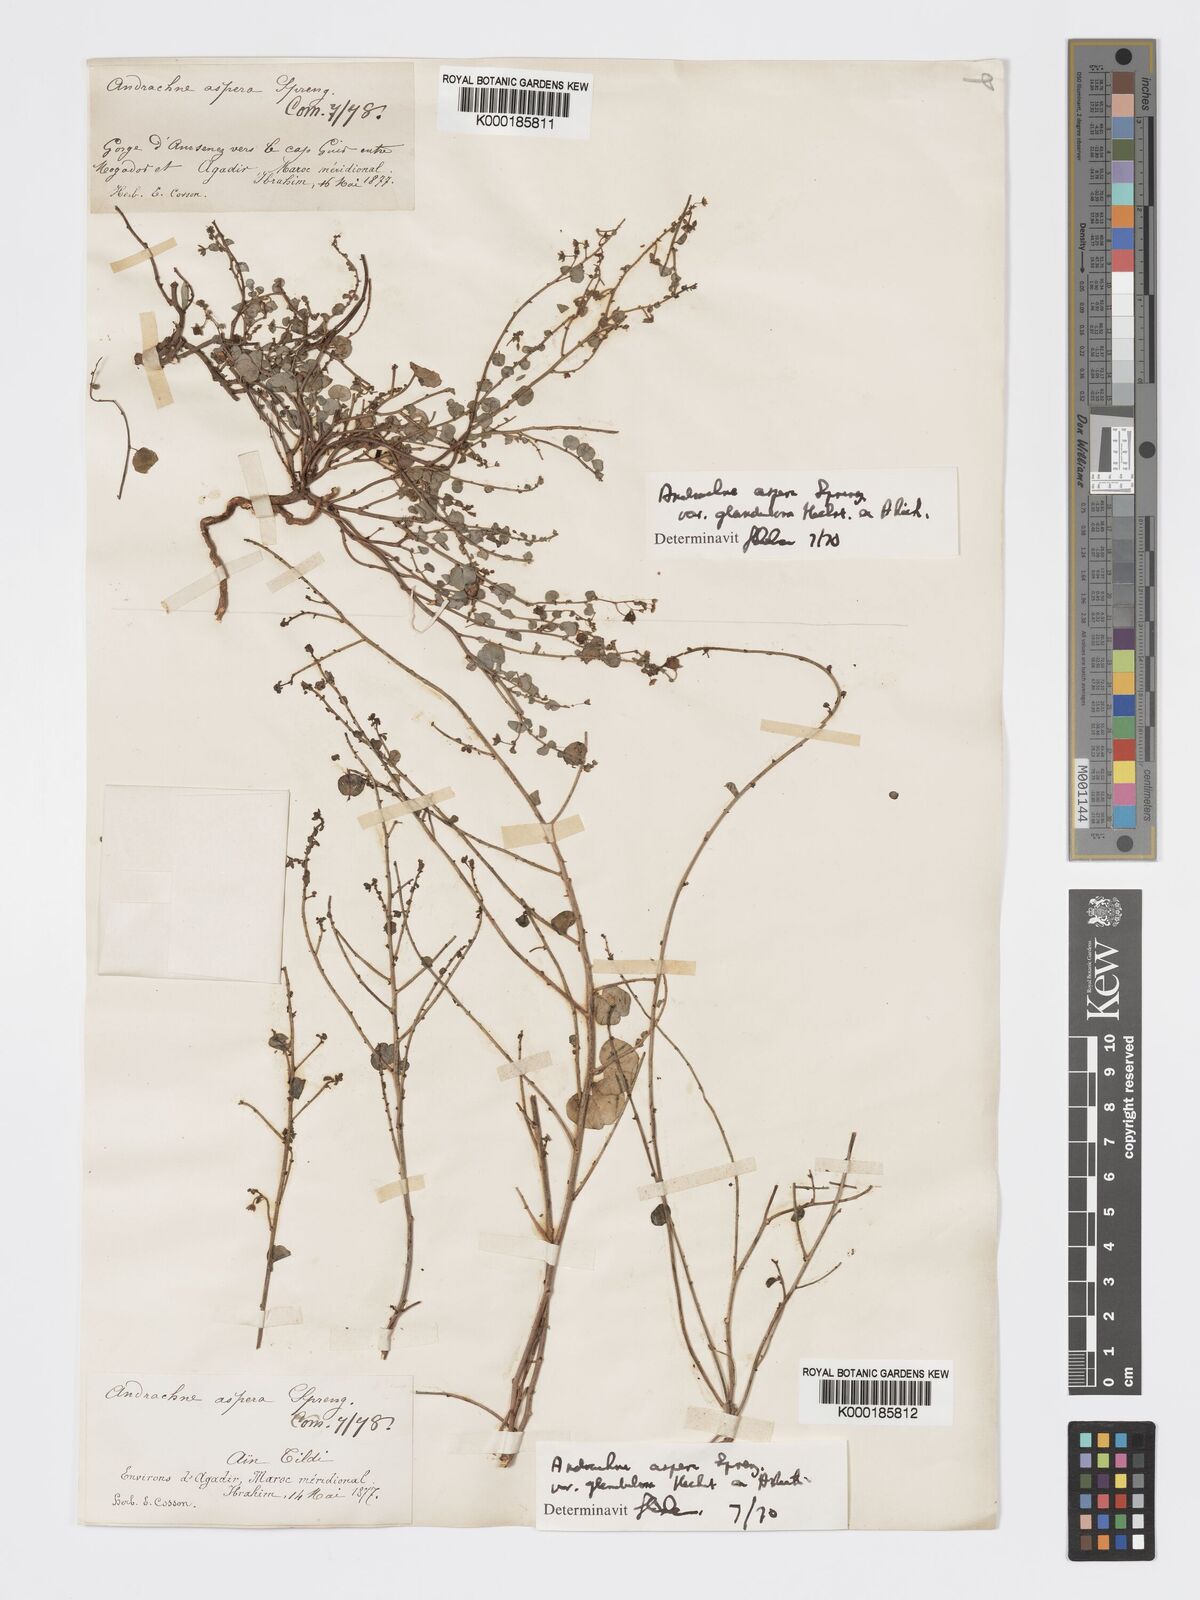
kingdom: Plantae
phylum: Tracheophyta
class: Magnoliopsida
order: Malpighiales
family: Phyllanthaceae
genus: Andrachne
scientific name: Andrachne aspera
